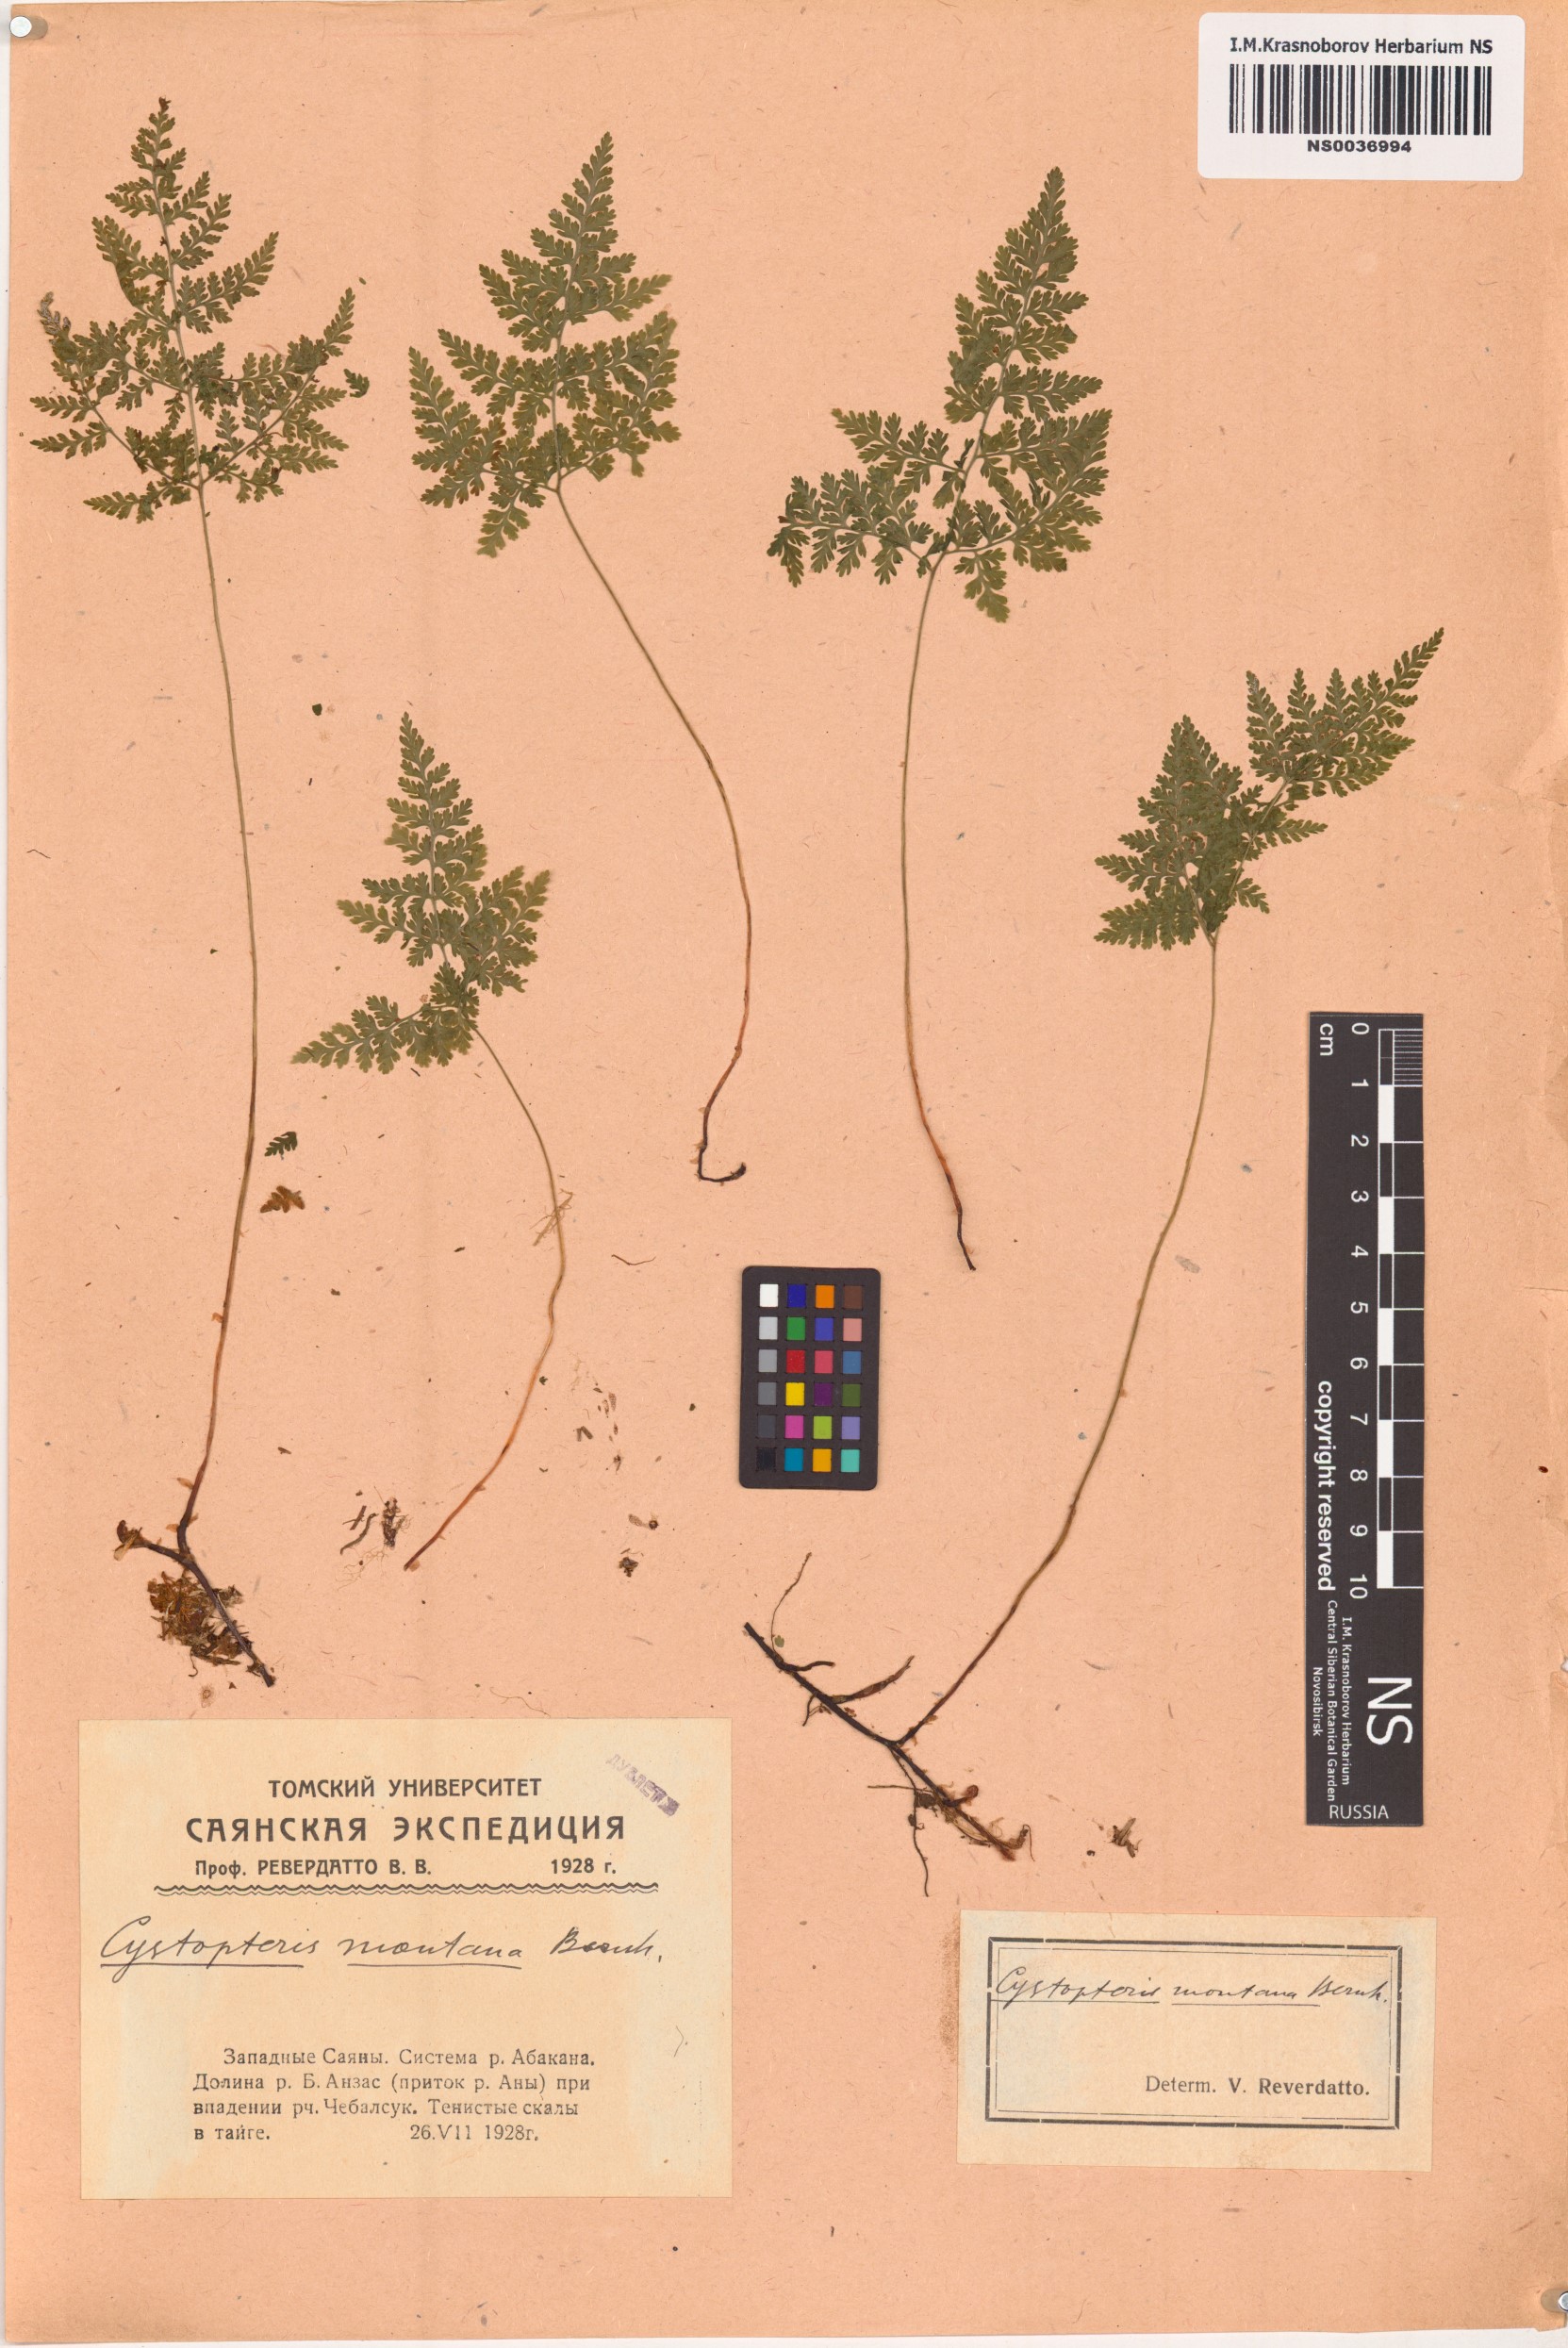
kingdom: Plantae
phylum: Tracheophyta
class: Polypodiopsida
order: Polypodiales
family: Cystopteridaceae
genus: Cystopteris
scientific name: Cystopteris montana
